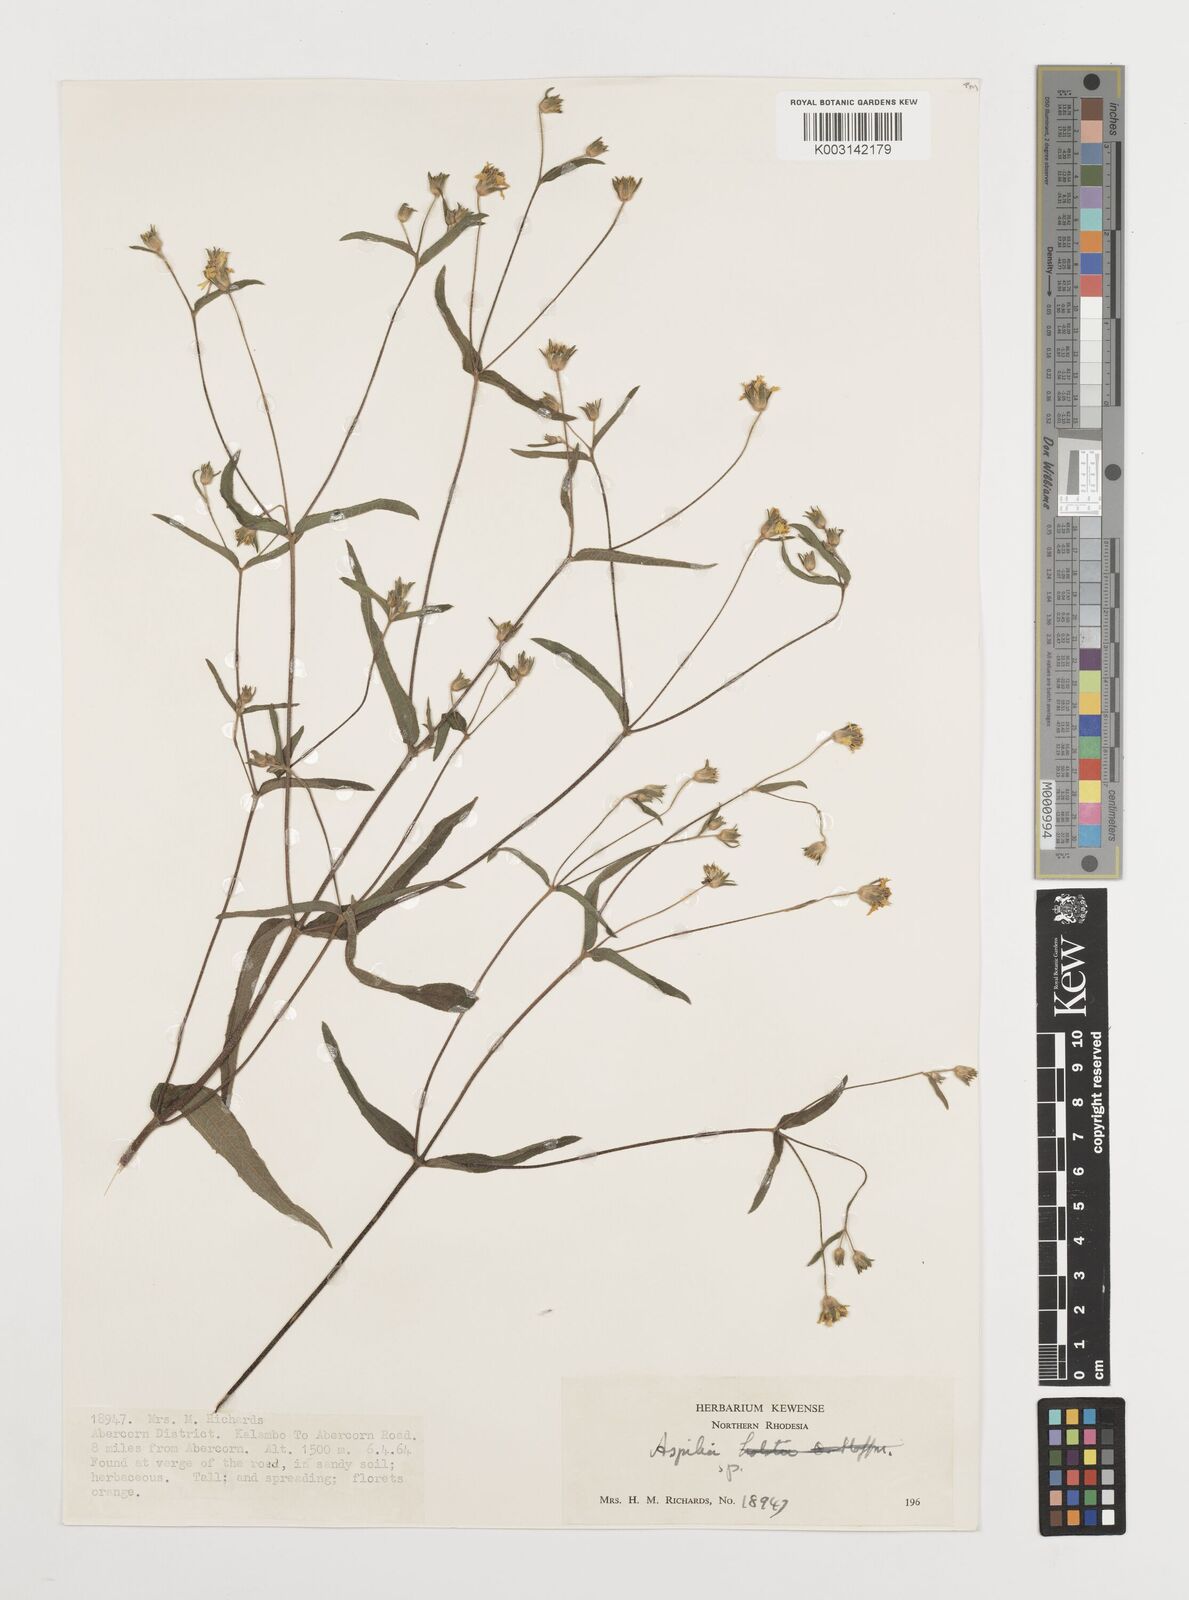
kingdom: Plantae
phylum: Tracheophyta
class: Magnoliopsida
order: Asterales
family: Asteraceae
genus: Aspilia
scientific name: Aspilia mossambicensis
